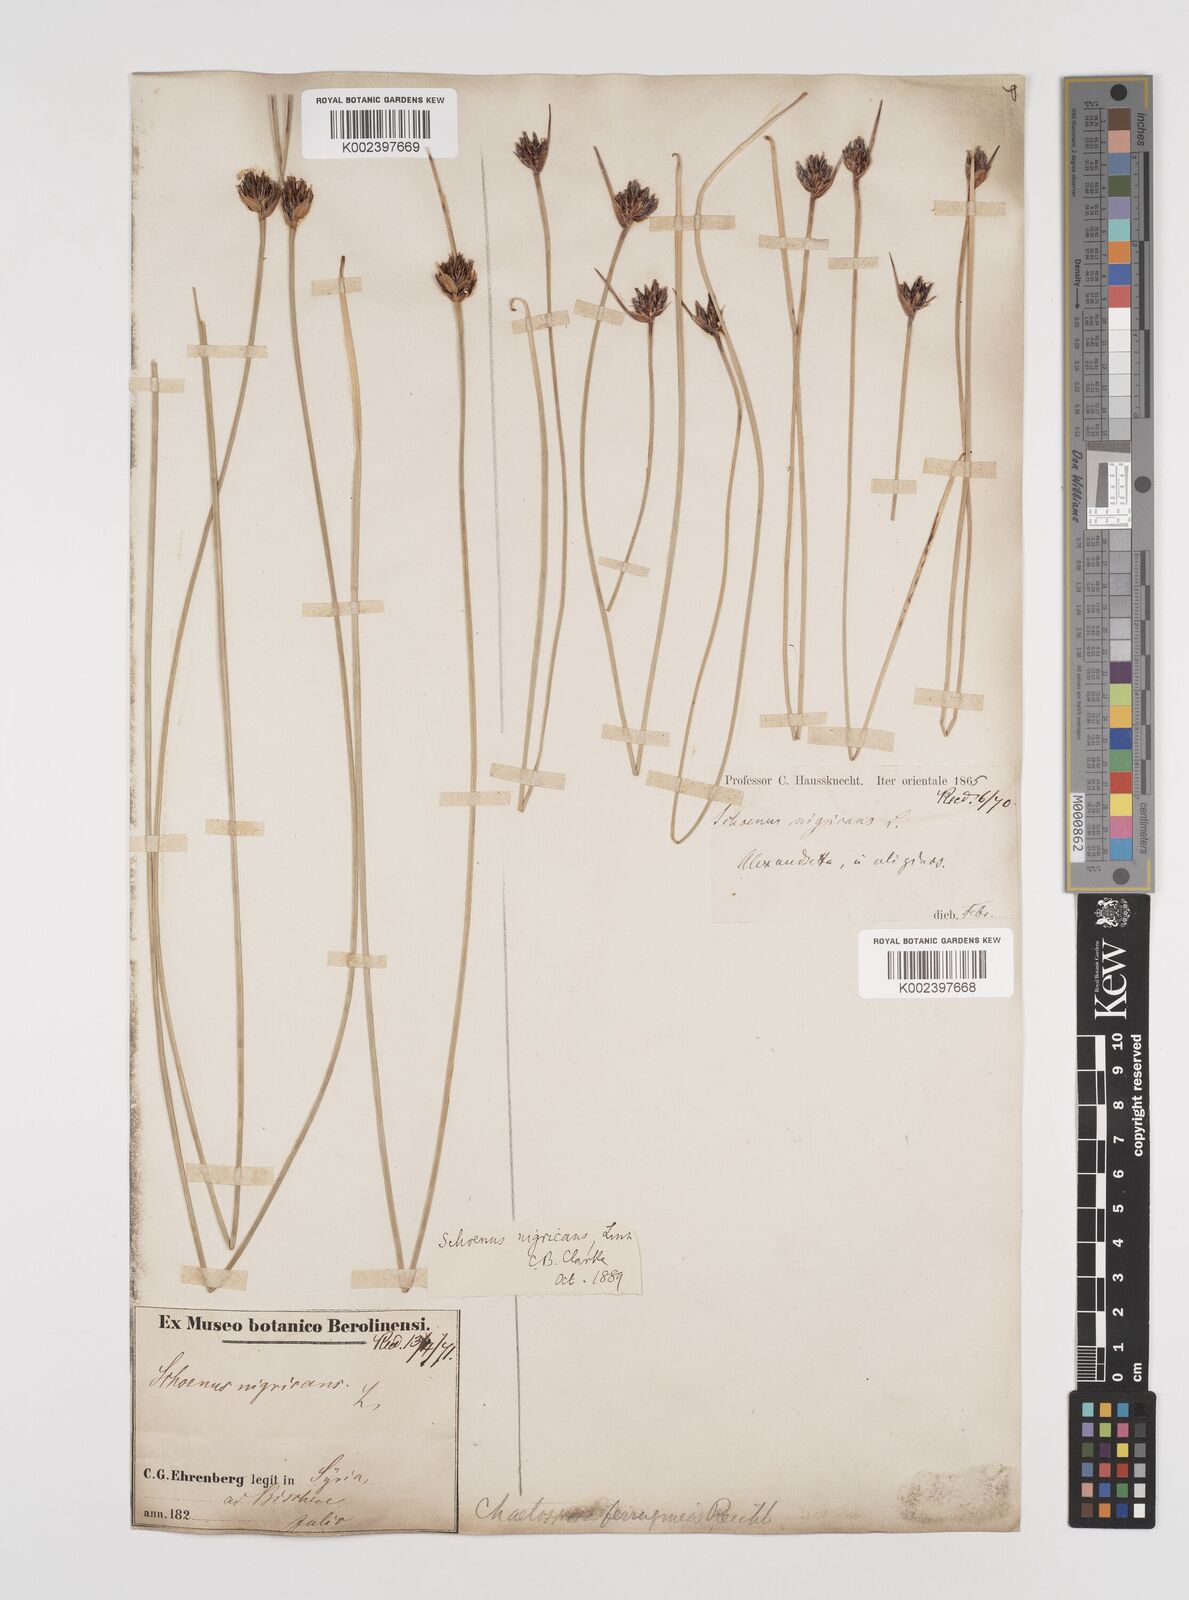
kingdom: Plantae
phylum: Tracheophyta
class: Liliopsida
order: Poales
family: Cyperaceae
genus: Schoenus
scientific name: Schoenus nigricans
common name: Black bog-rush
